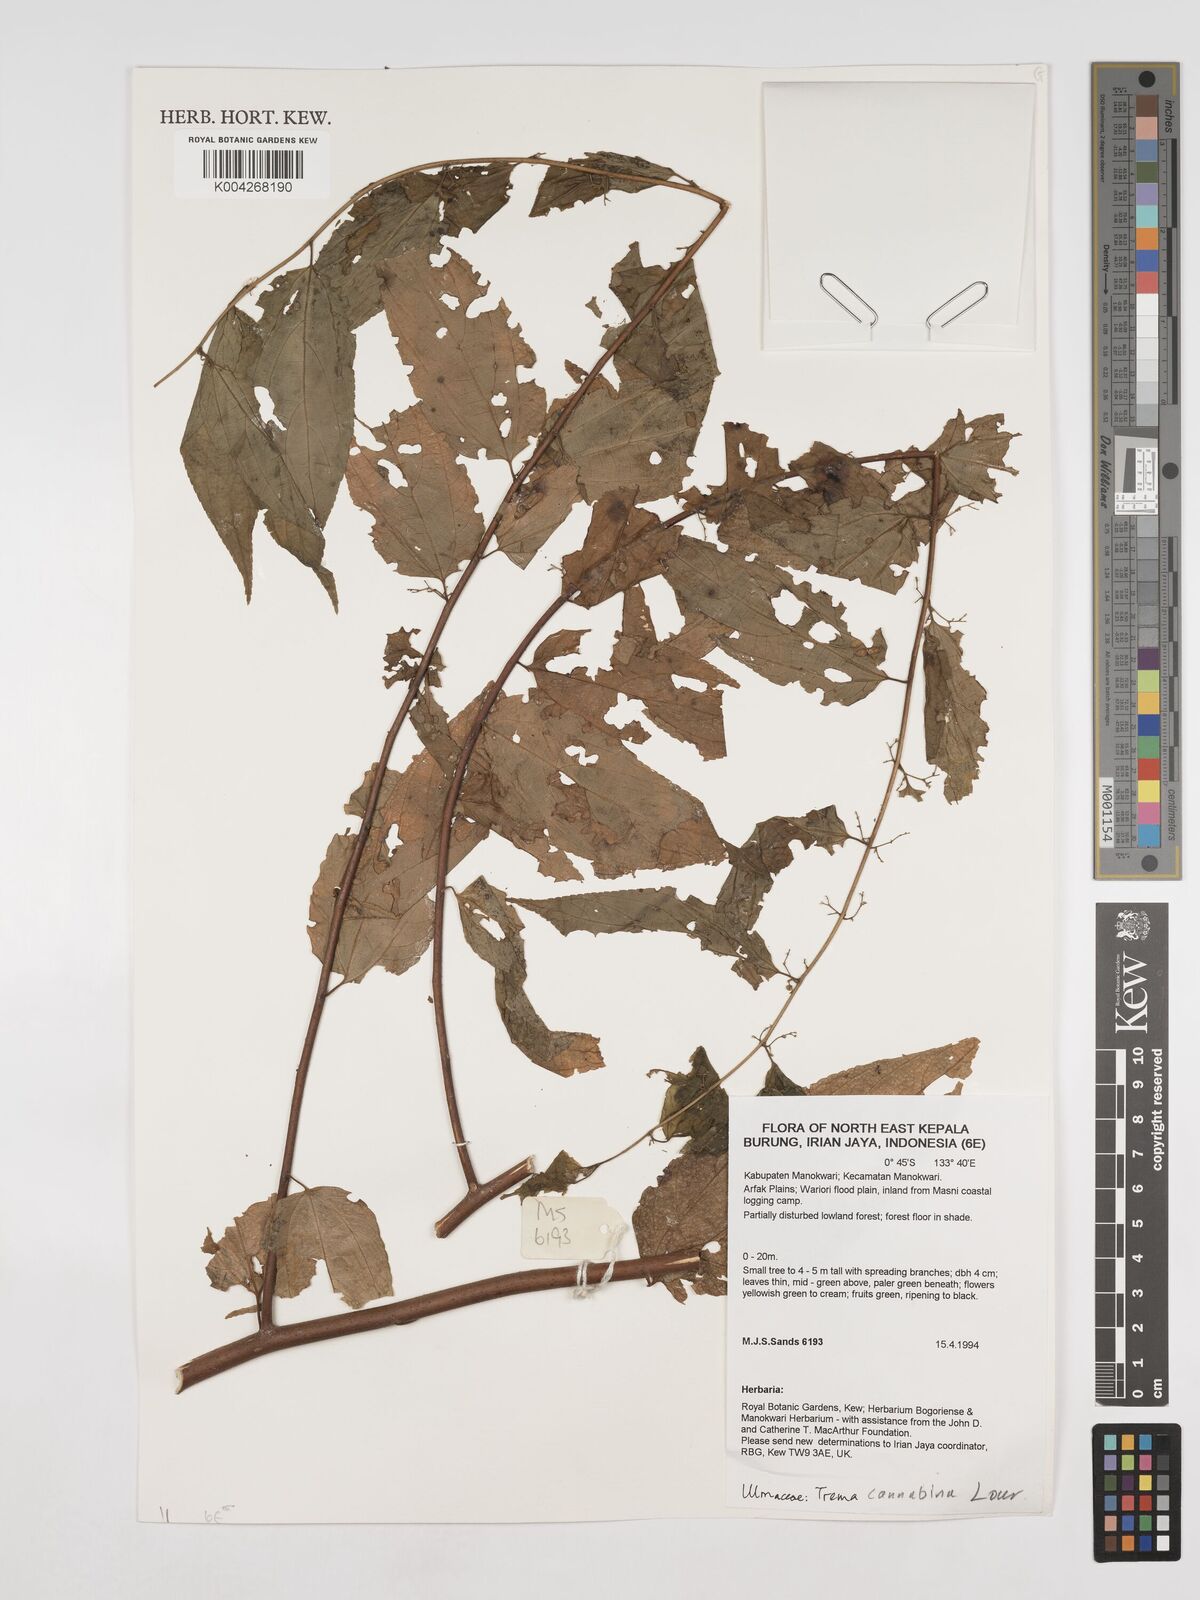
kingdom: Plantae
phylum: Tracheophyta
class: Magnoliopsida
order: Rosales
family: Cannabaceae
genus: Trema
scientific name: Trema
